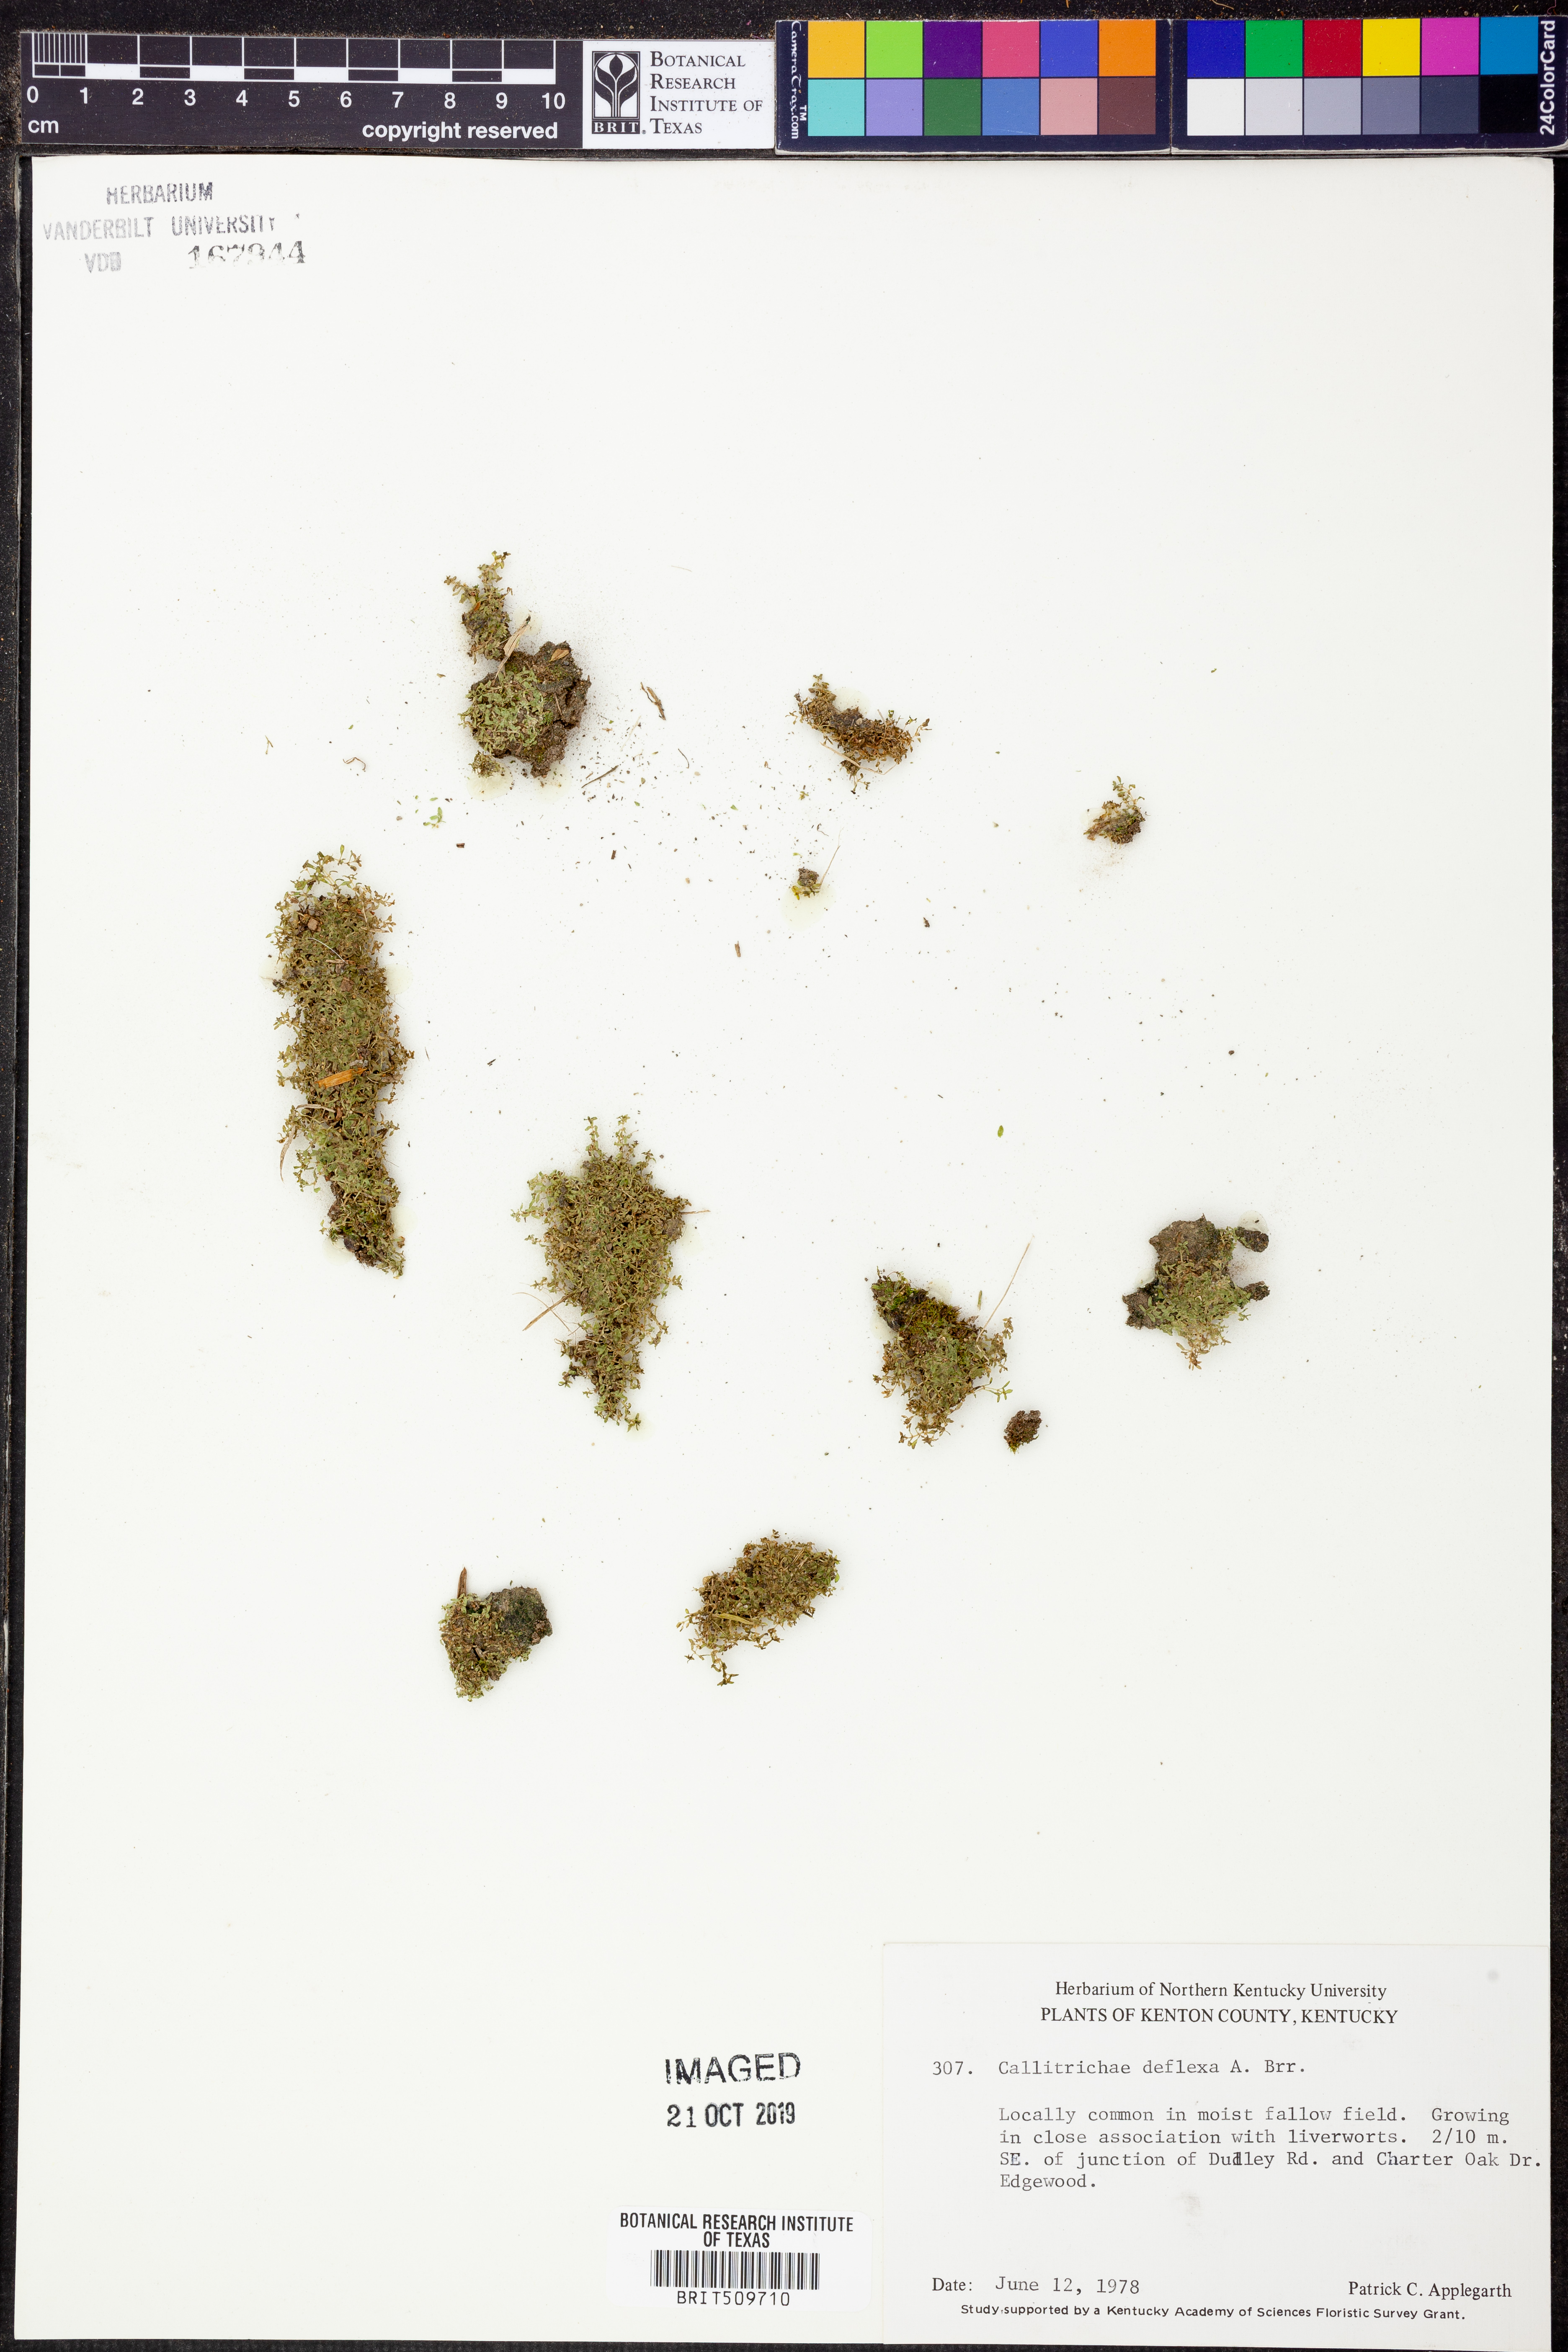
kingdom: Plantae
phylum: Tracheophyta
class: Magnoliopsida
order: Lamiales
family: Plantaginaceae
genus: Callitriche
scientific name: Callitriche deflexa
